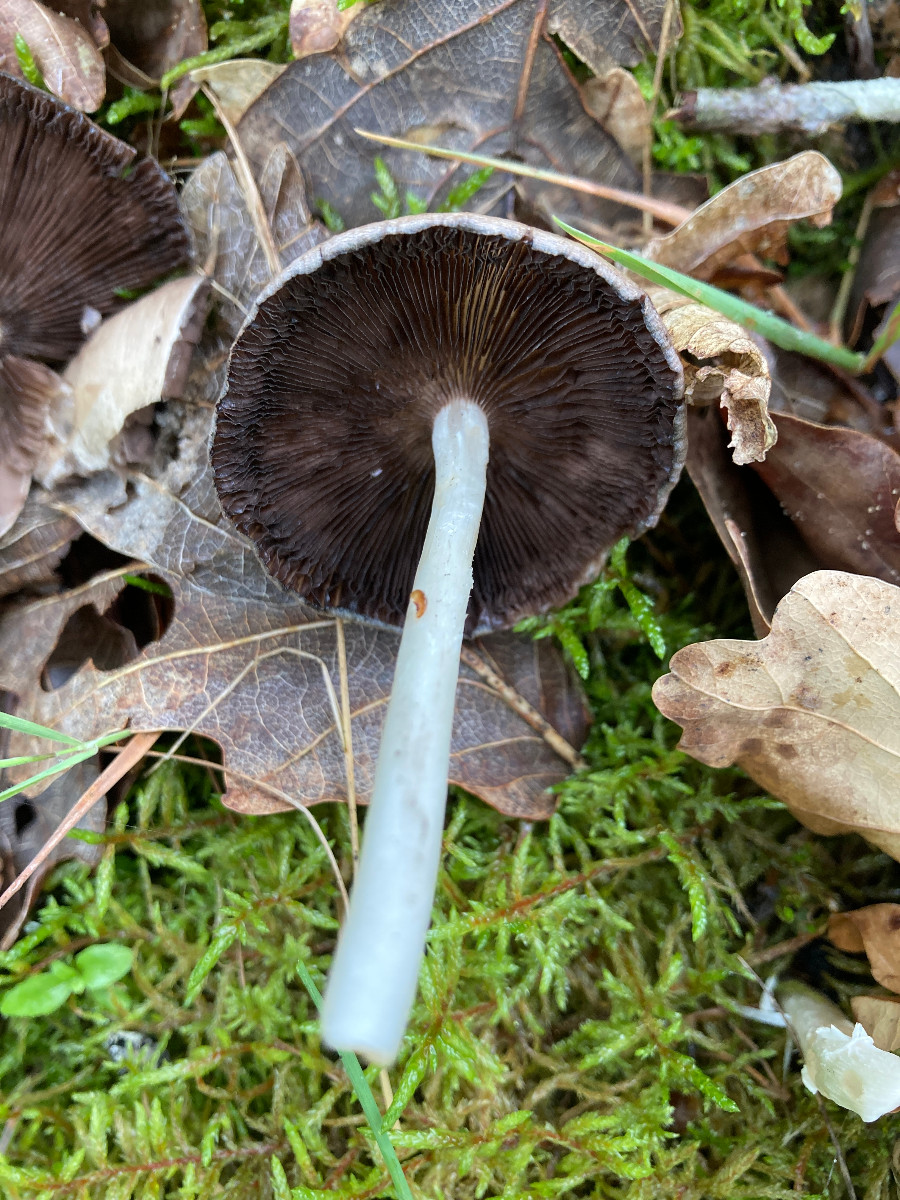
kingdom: Fungi
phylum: Basidiomycota
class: Agaricomycetes
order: Agaricales
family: Psathyrellaceae
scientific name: Psathyrellaceae
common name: mørkhatfamilien
